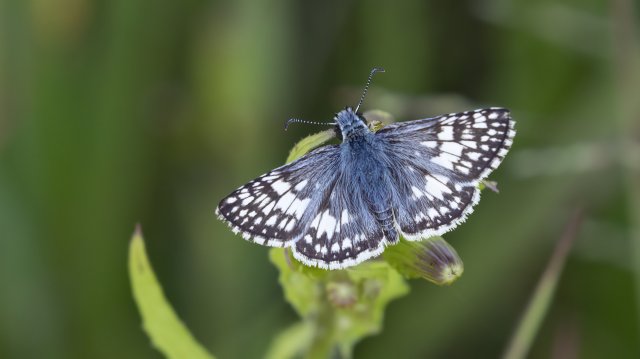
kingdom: Animalia
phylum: Arthropoda
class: Insecta
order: Lepidoptera
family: Hesperiidae
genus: Pyrgus
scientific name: Pyrgus communis
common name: Common Checkered-Skipper
